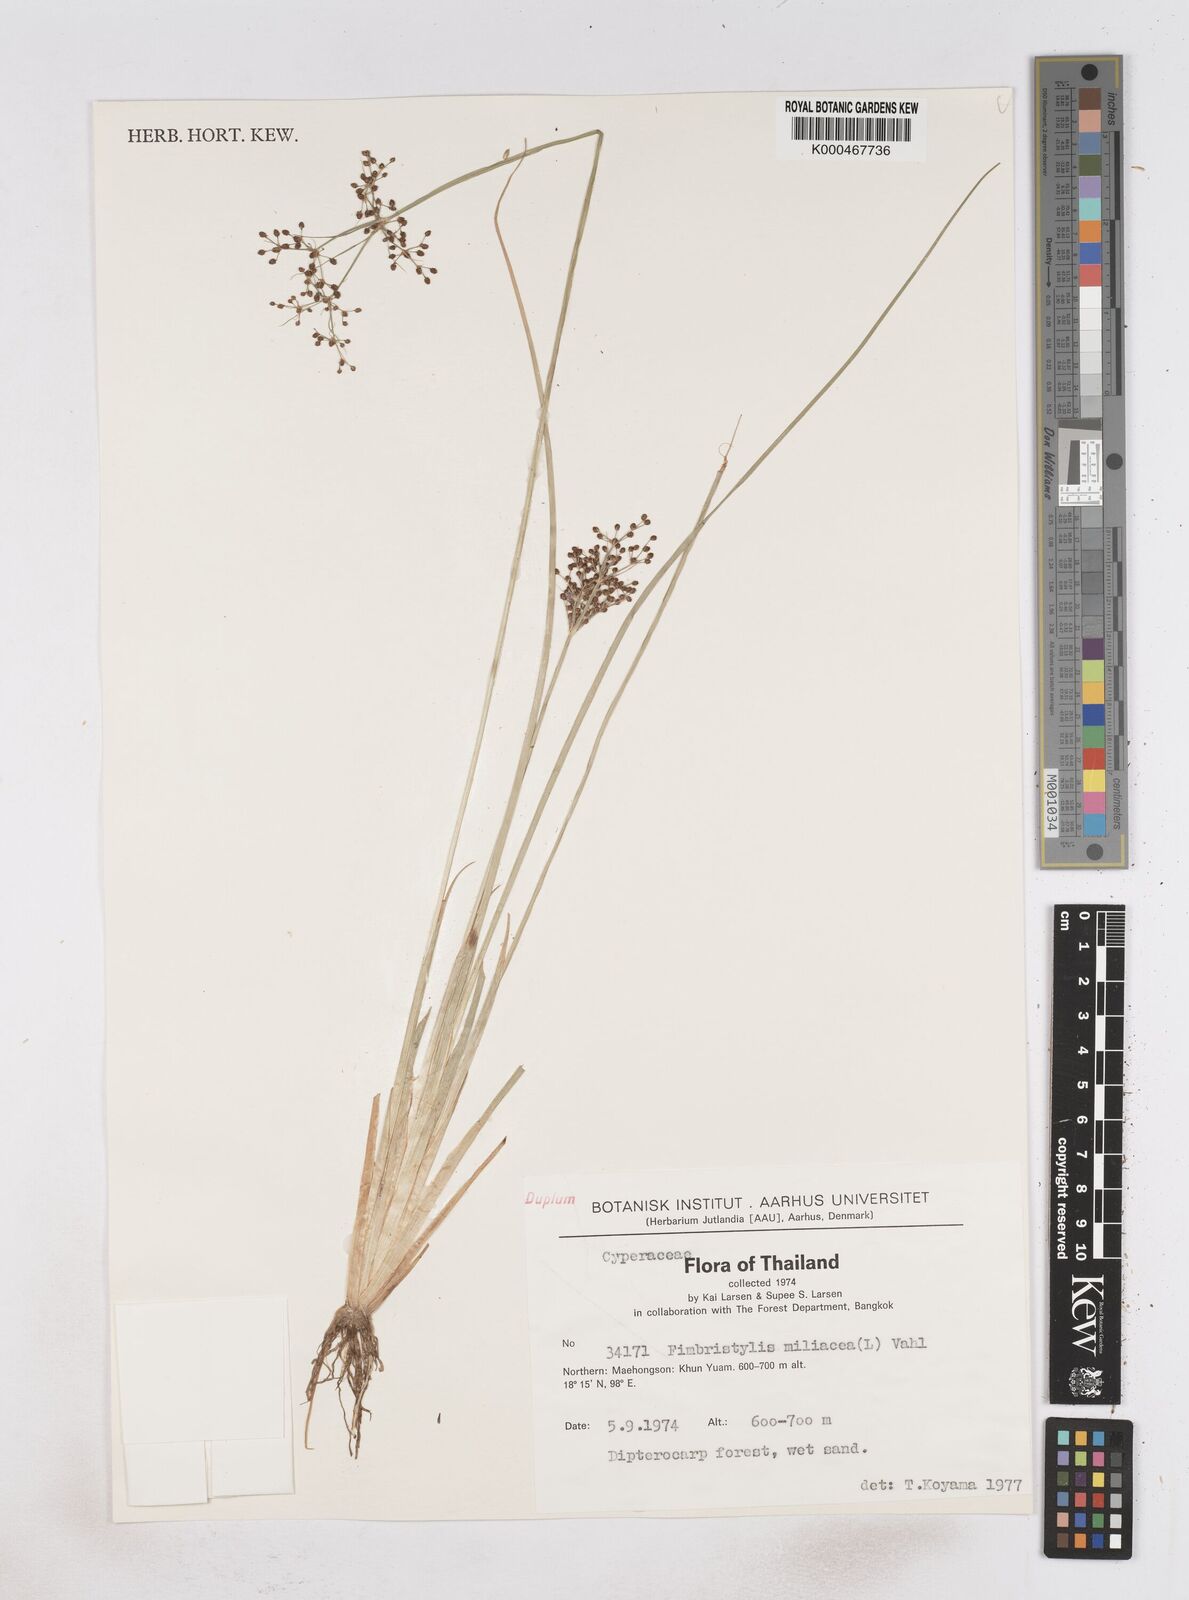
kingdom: Plantae
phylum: Tracheophyta
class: Liliopsida
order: Poales
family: Cyperaceae
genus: Fimbristylis
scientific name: Fimbristylis quinquangularis
